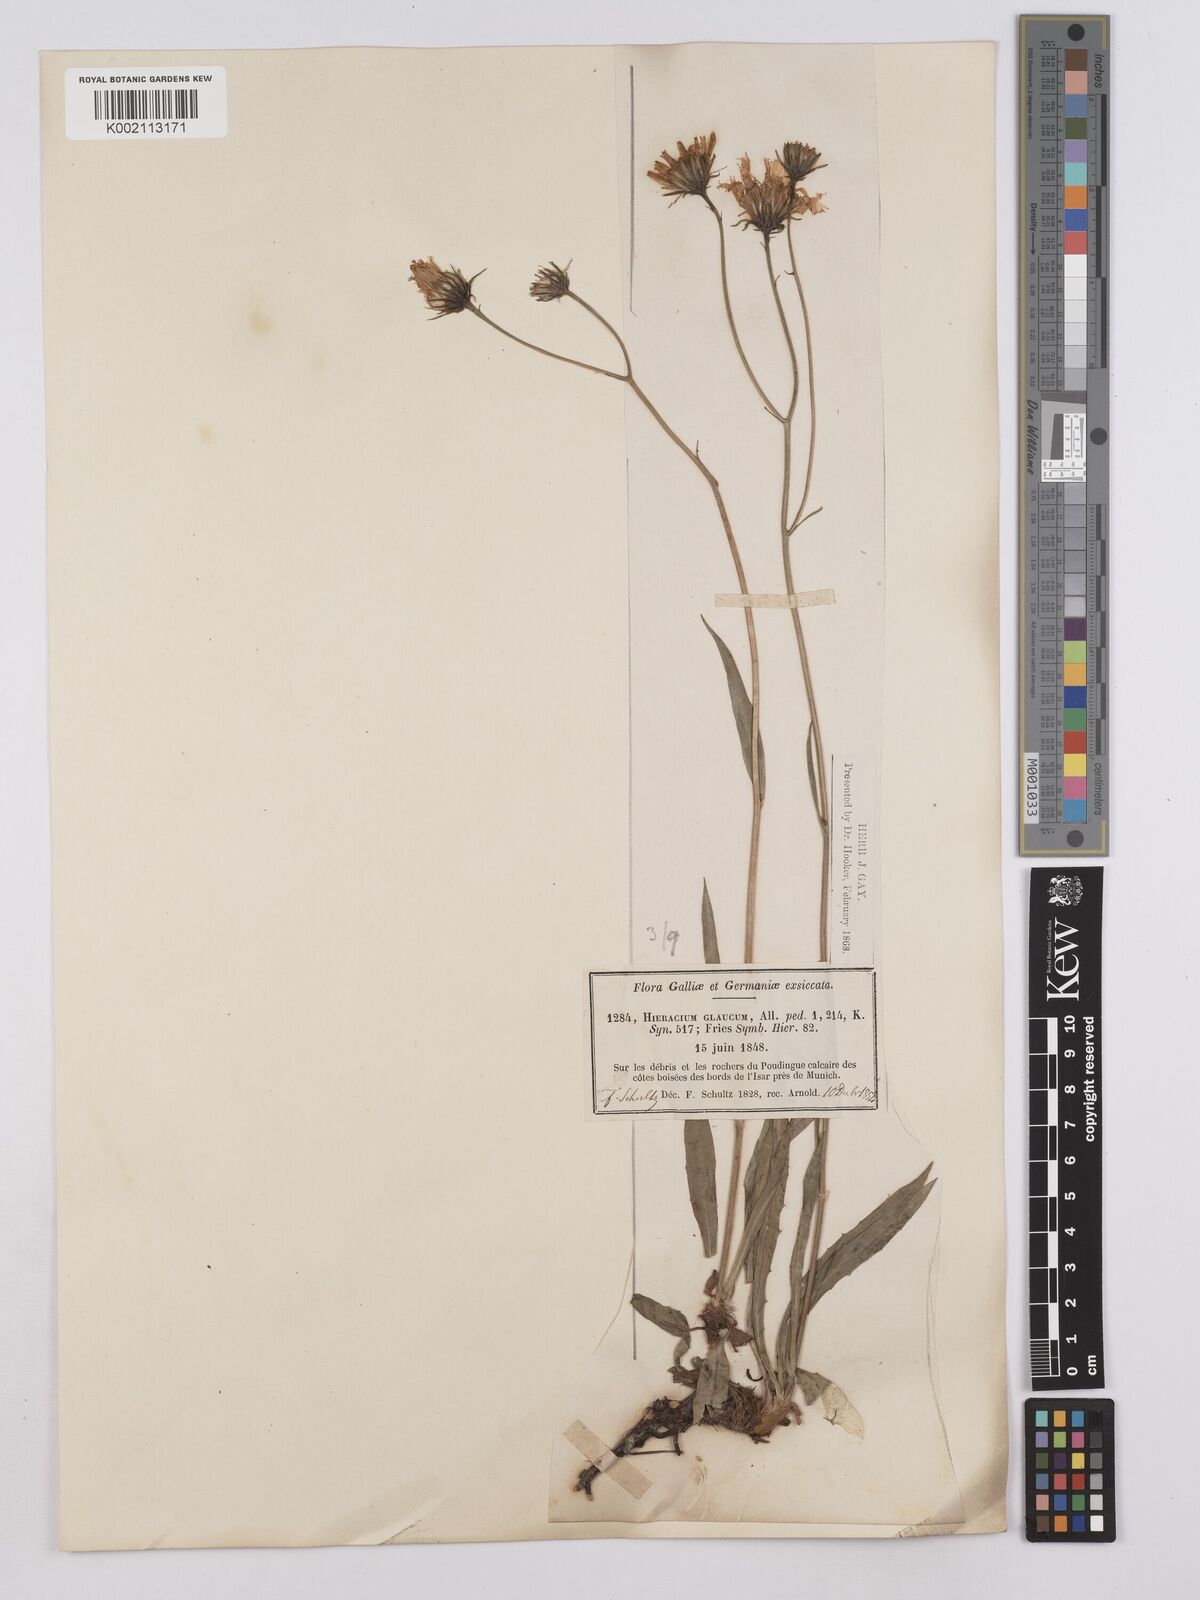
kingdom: Plantae
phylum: Tracheophyta
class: Magnoliopsida
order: Asterales
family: Asteraceae
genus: Hieracium
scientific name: Hieracium glaucum
